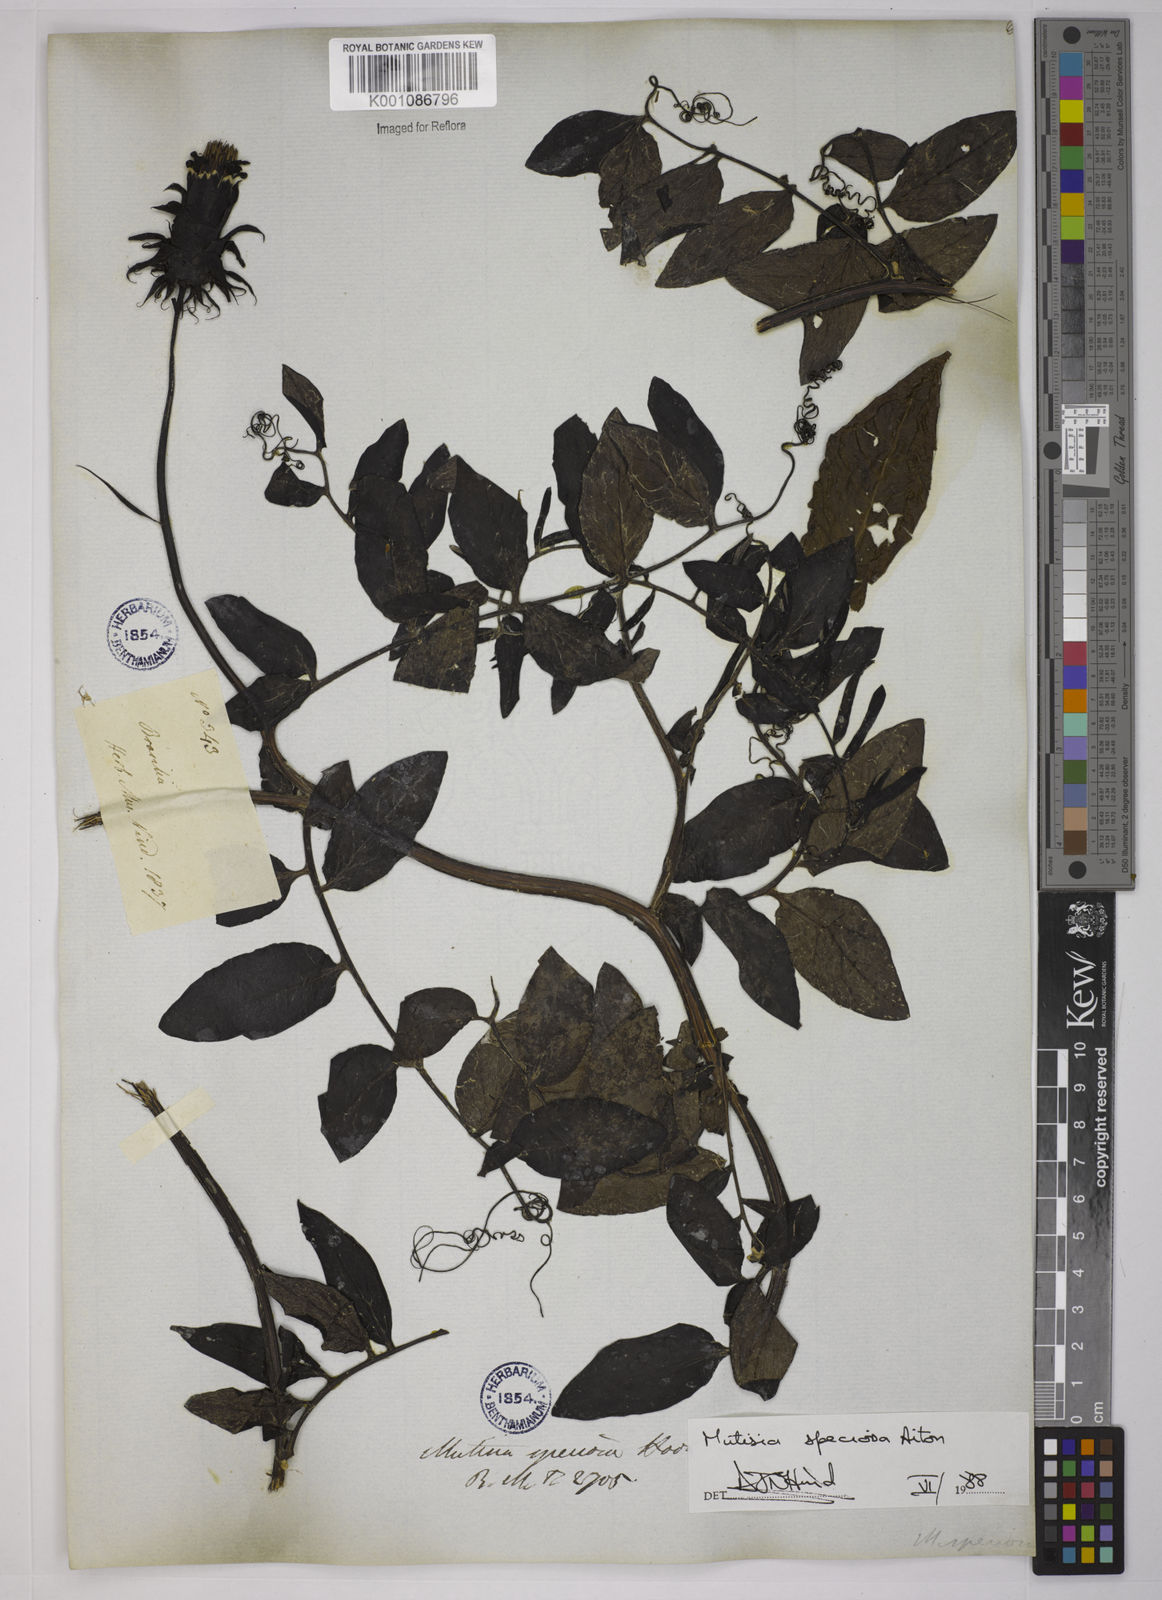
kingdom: Plantae
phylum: Tracheophyta
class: Magnoliopsida
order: Asterales
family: Asteraceae
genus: Mutisia
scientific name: Mutisia speciosa
